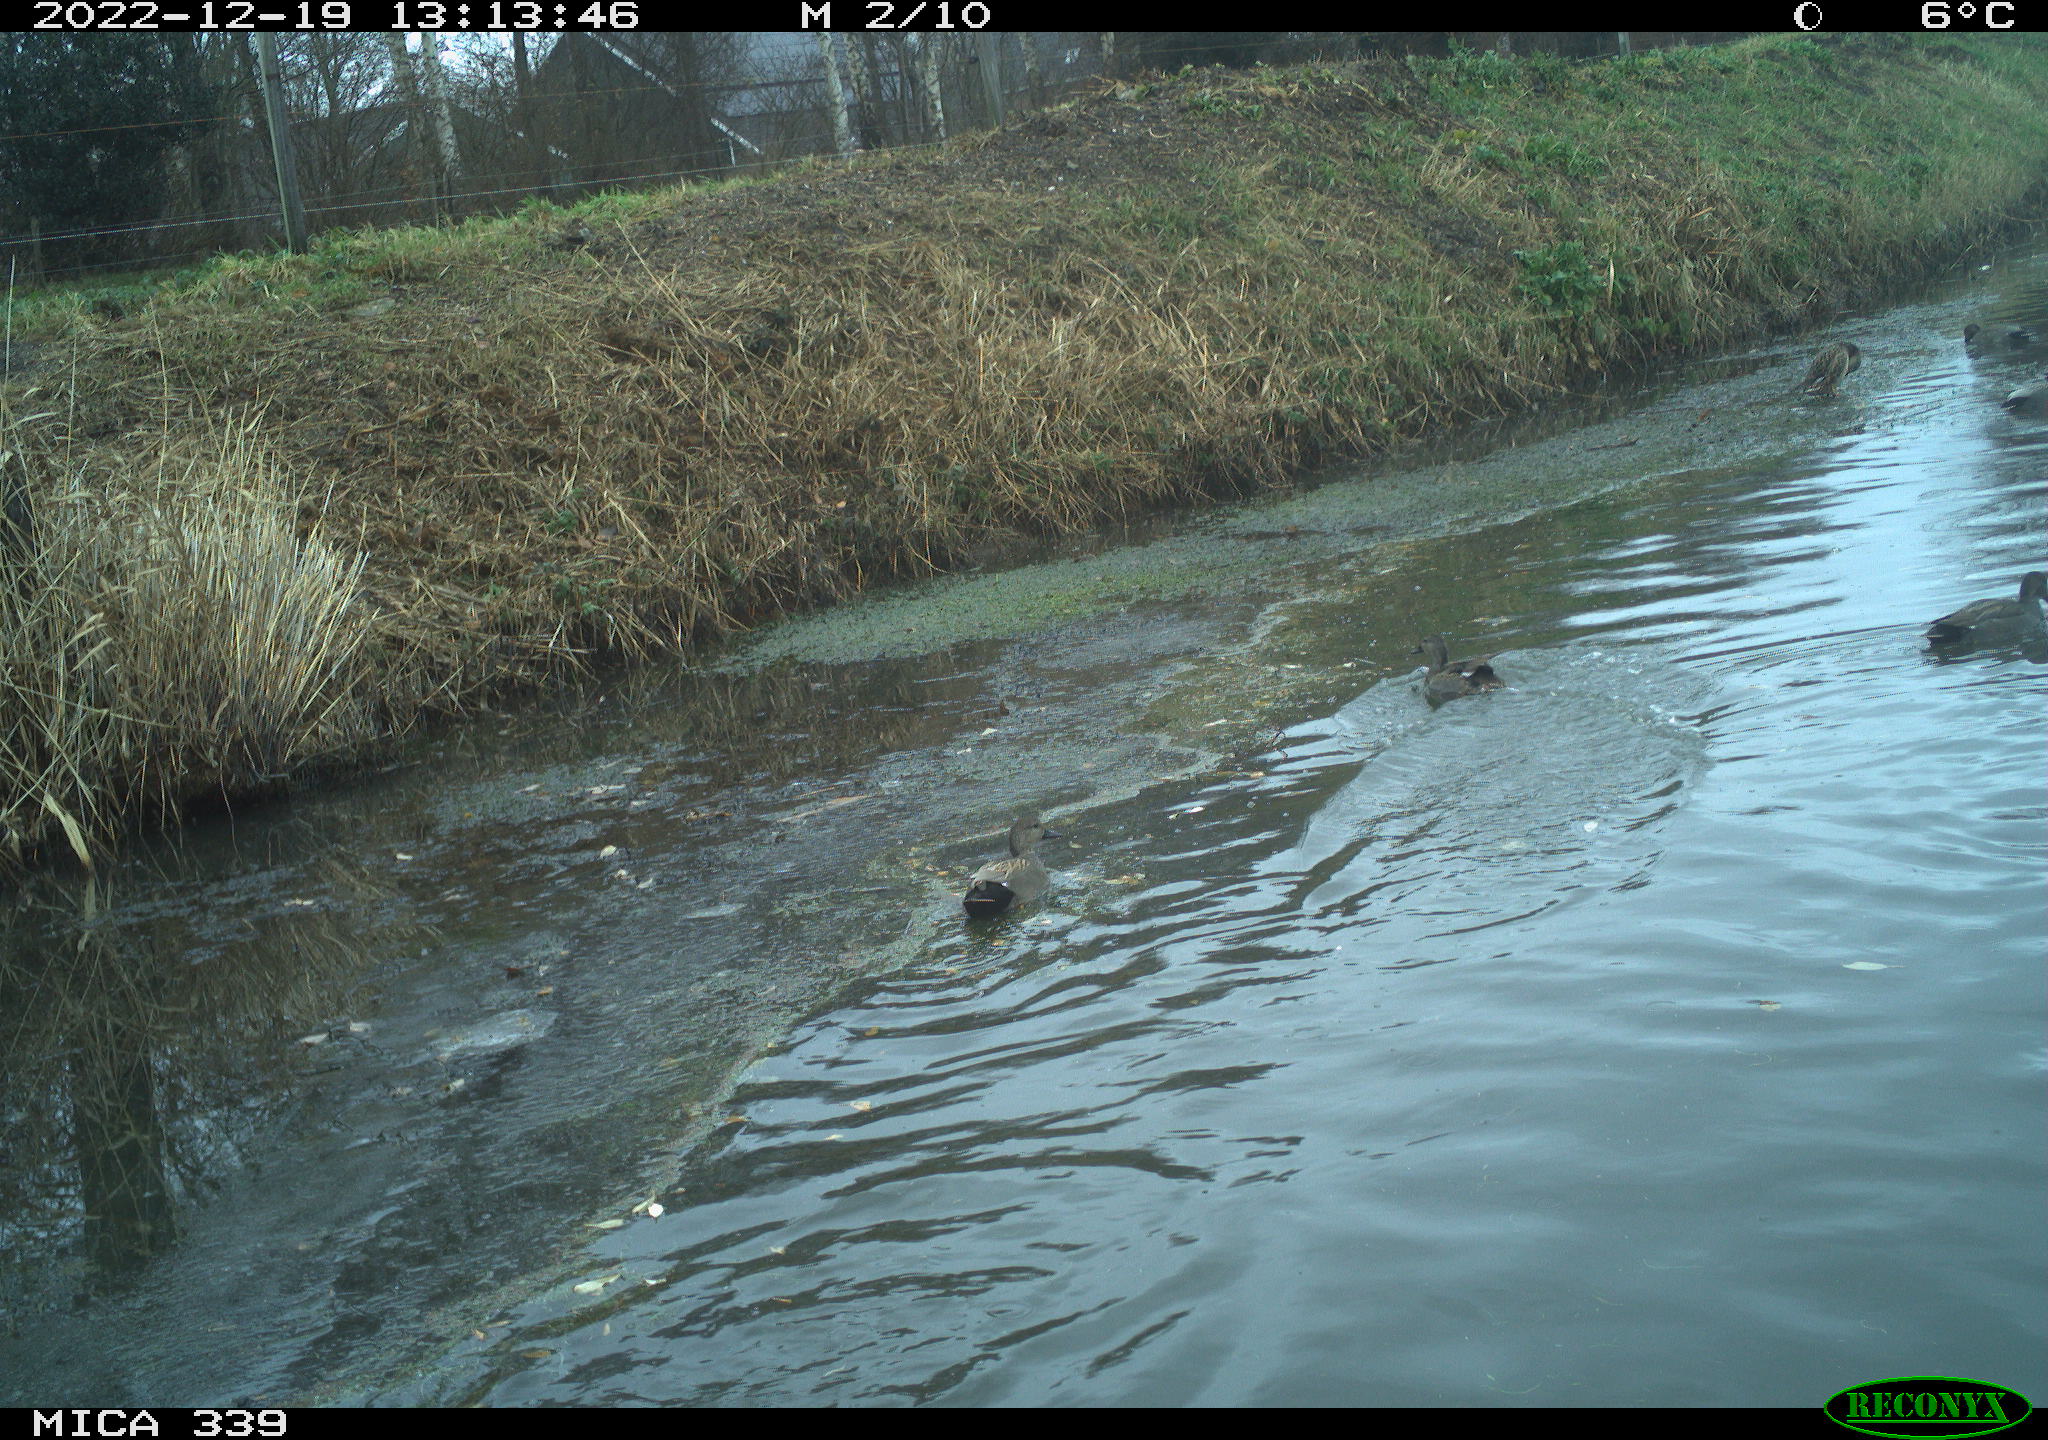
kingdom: Animalia
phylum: Chordata
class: Aves
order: Anseriformes
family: Anatidae
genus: Anas
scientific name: Anas
